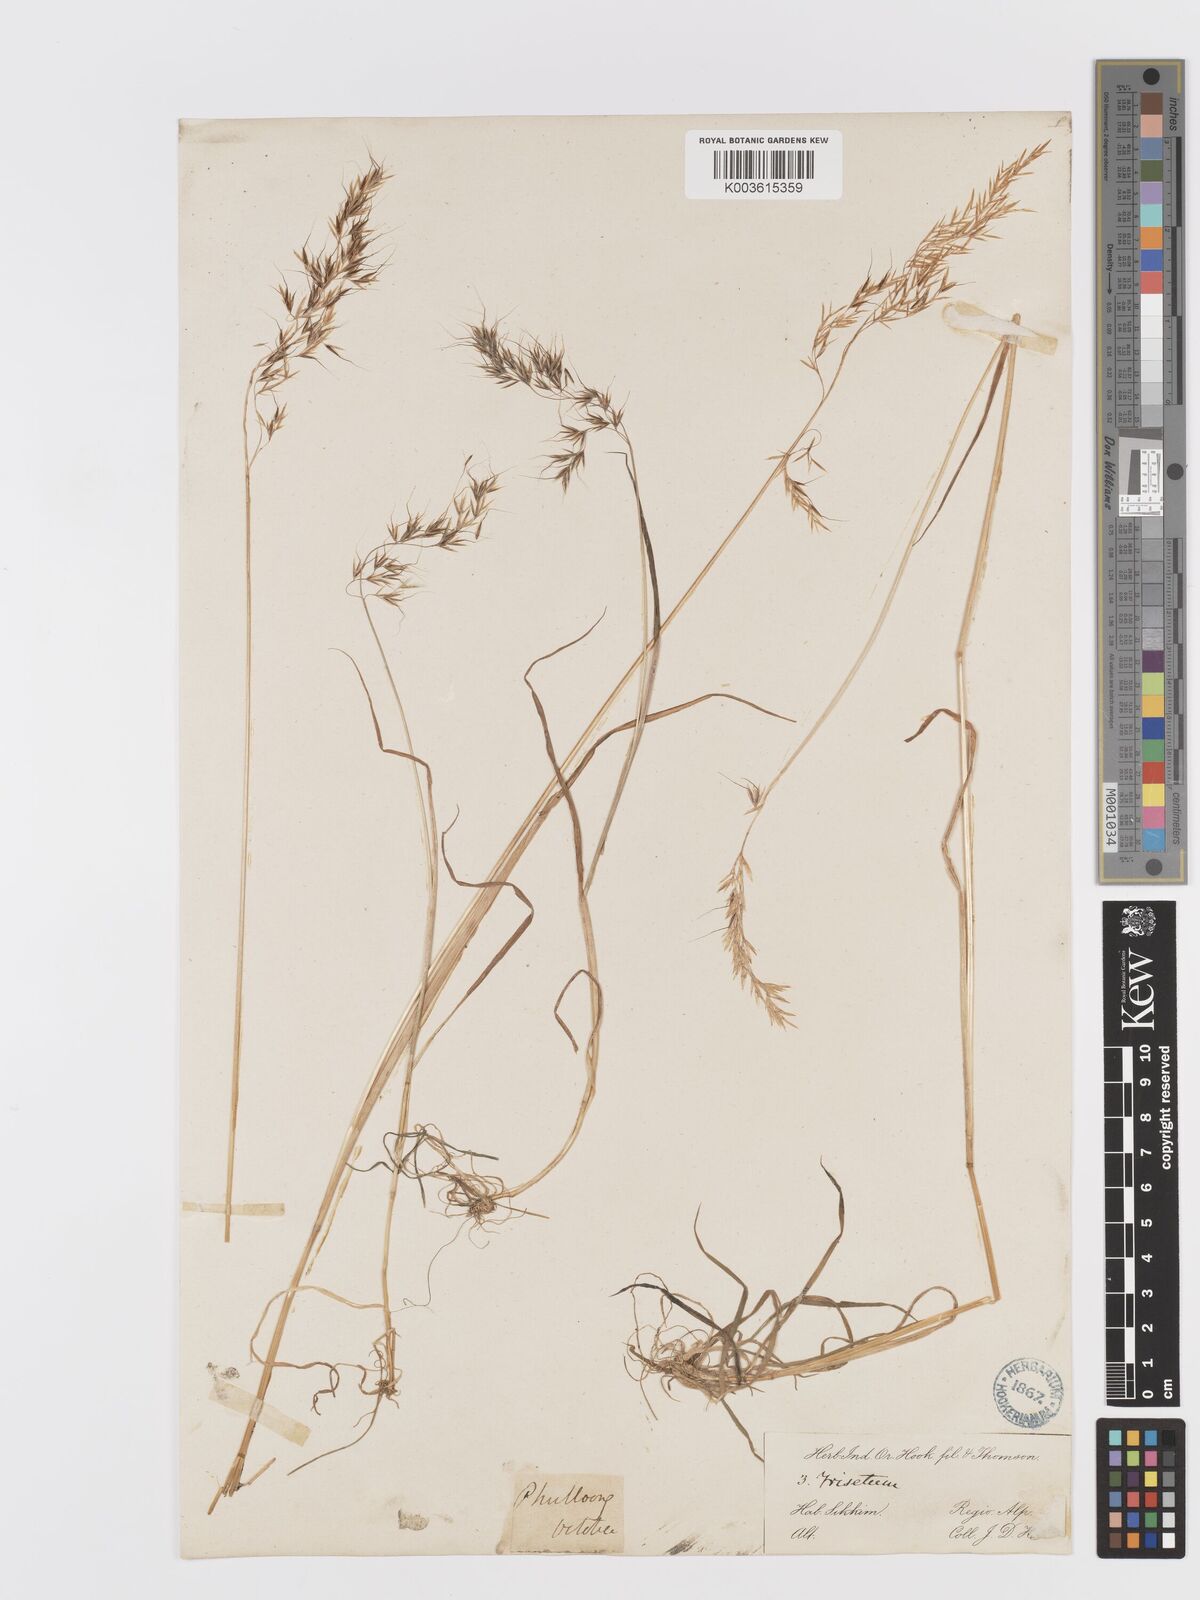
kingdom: Plantae
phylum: Tracheophyta
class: Liliopsida
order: Poales
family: Poaceae
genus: Sibirotrisetum
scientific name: Sibirotrisetum scitulum
